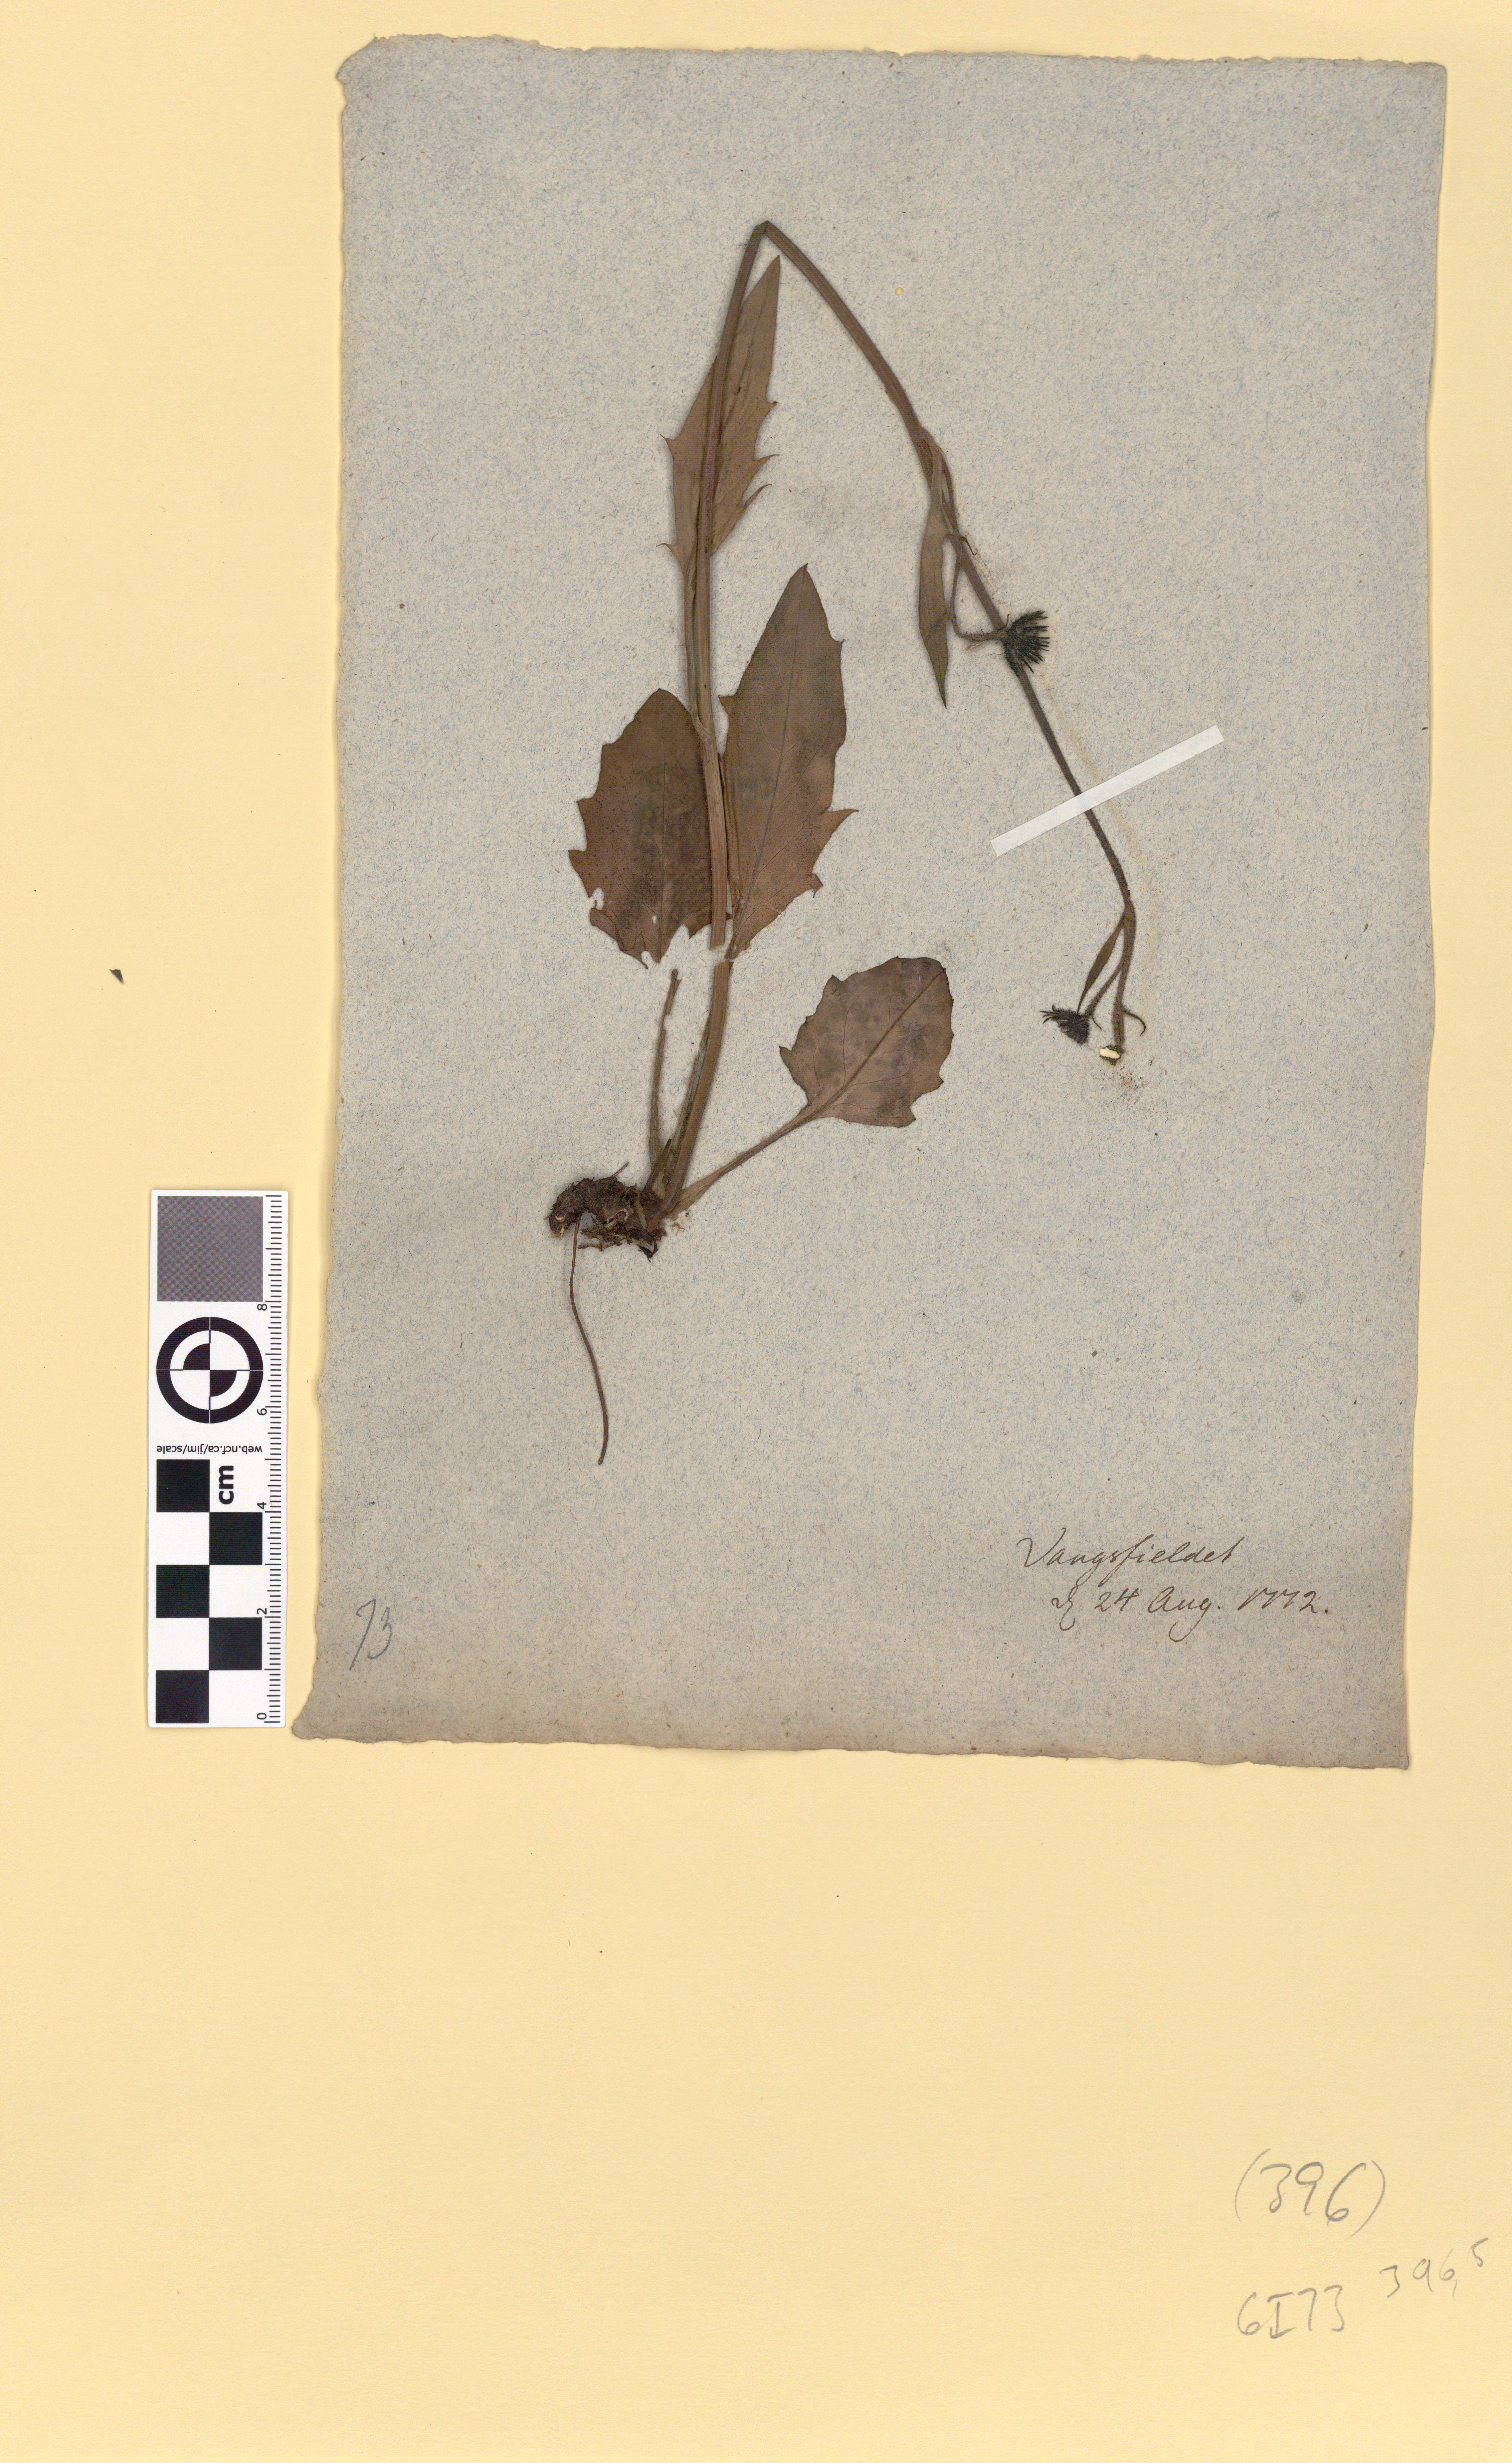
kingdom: Plantae
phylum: Tracheophyta
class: Magnoliopsida
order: Asterales
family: Asteraceae
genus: Hieracium
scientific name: Hieracium
